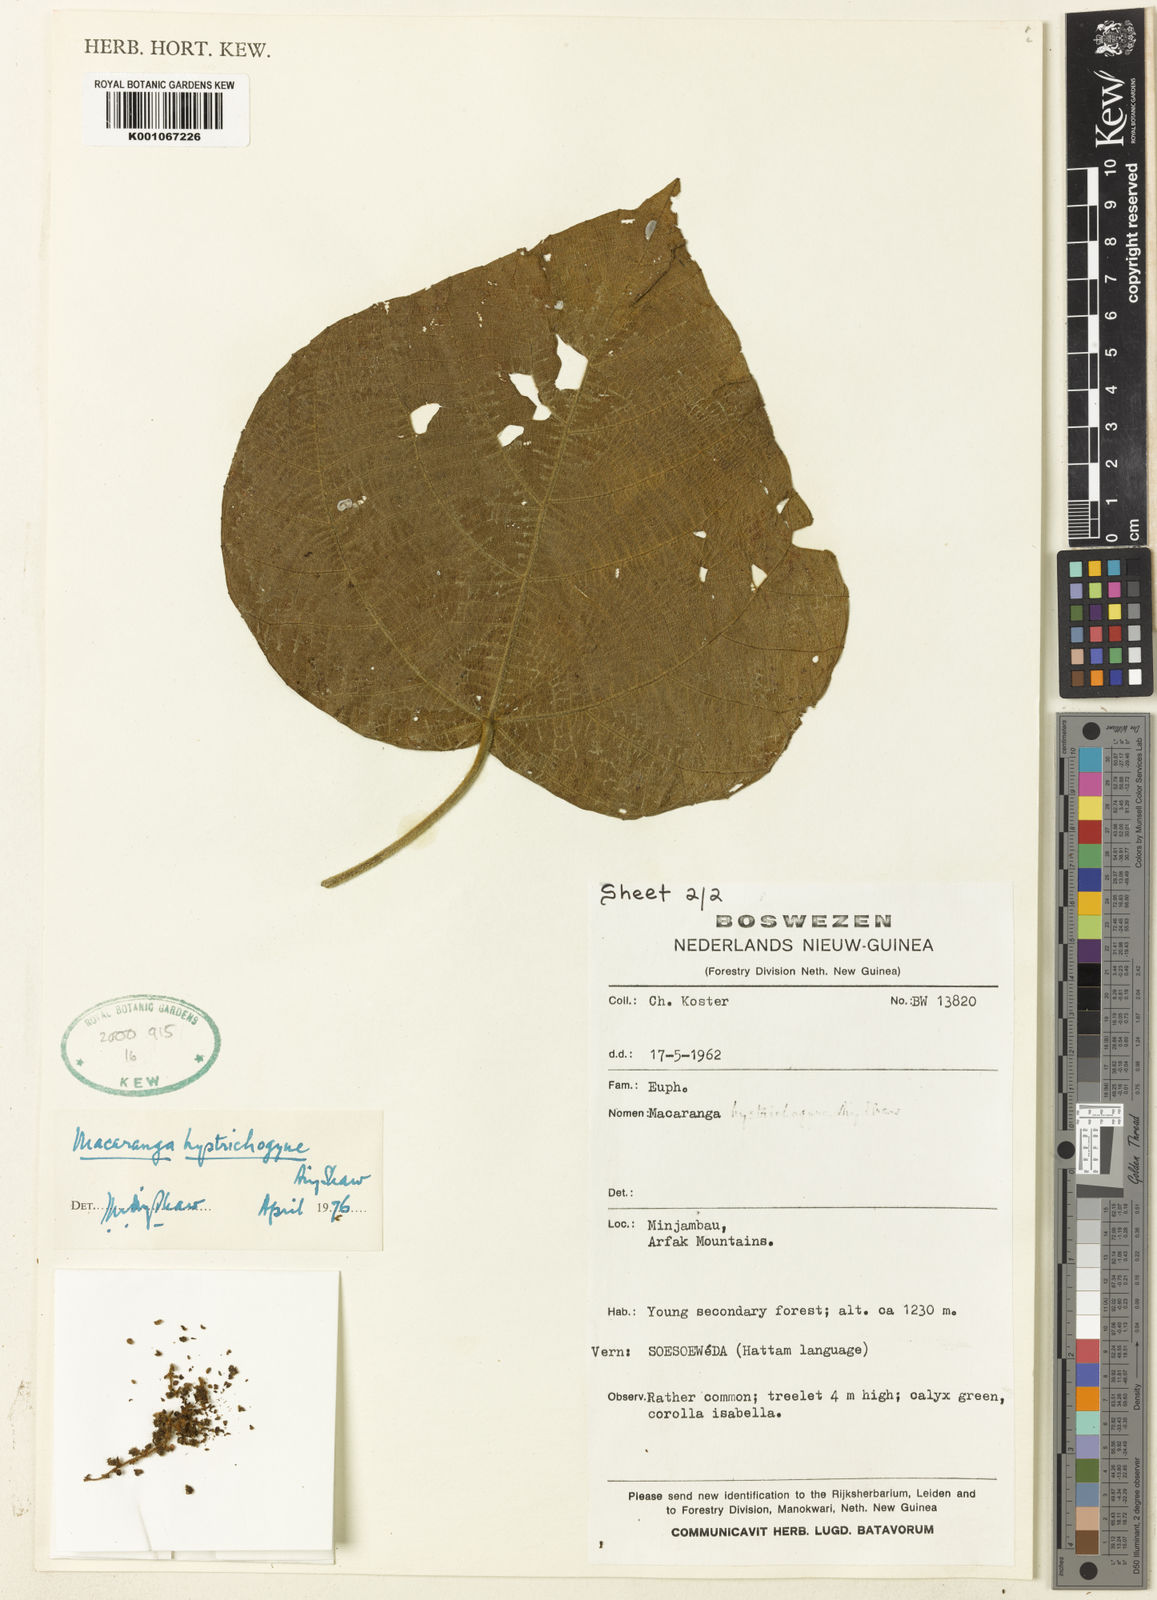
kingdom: Plantae
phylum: Tracheophyta
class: Magnoliopsida
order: Malpighiales
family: Euphorbiaceae
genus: Macaranga
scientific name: Macaranga hystrichogyne
